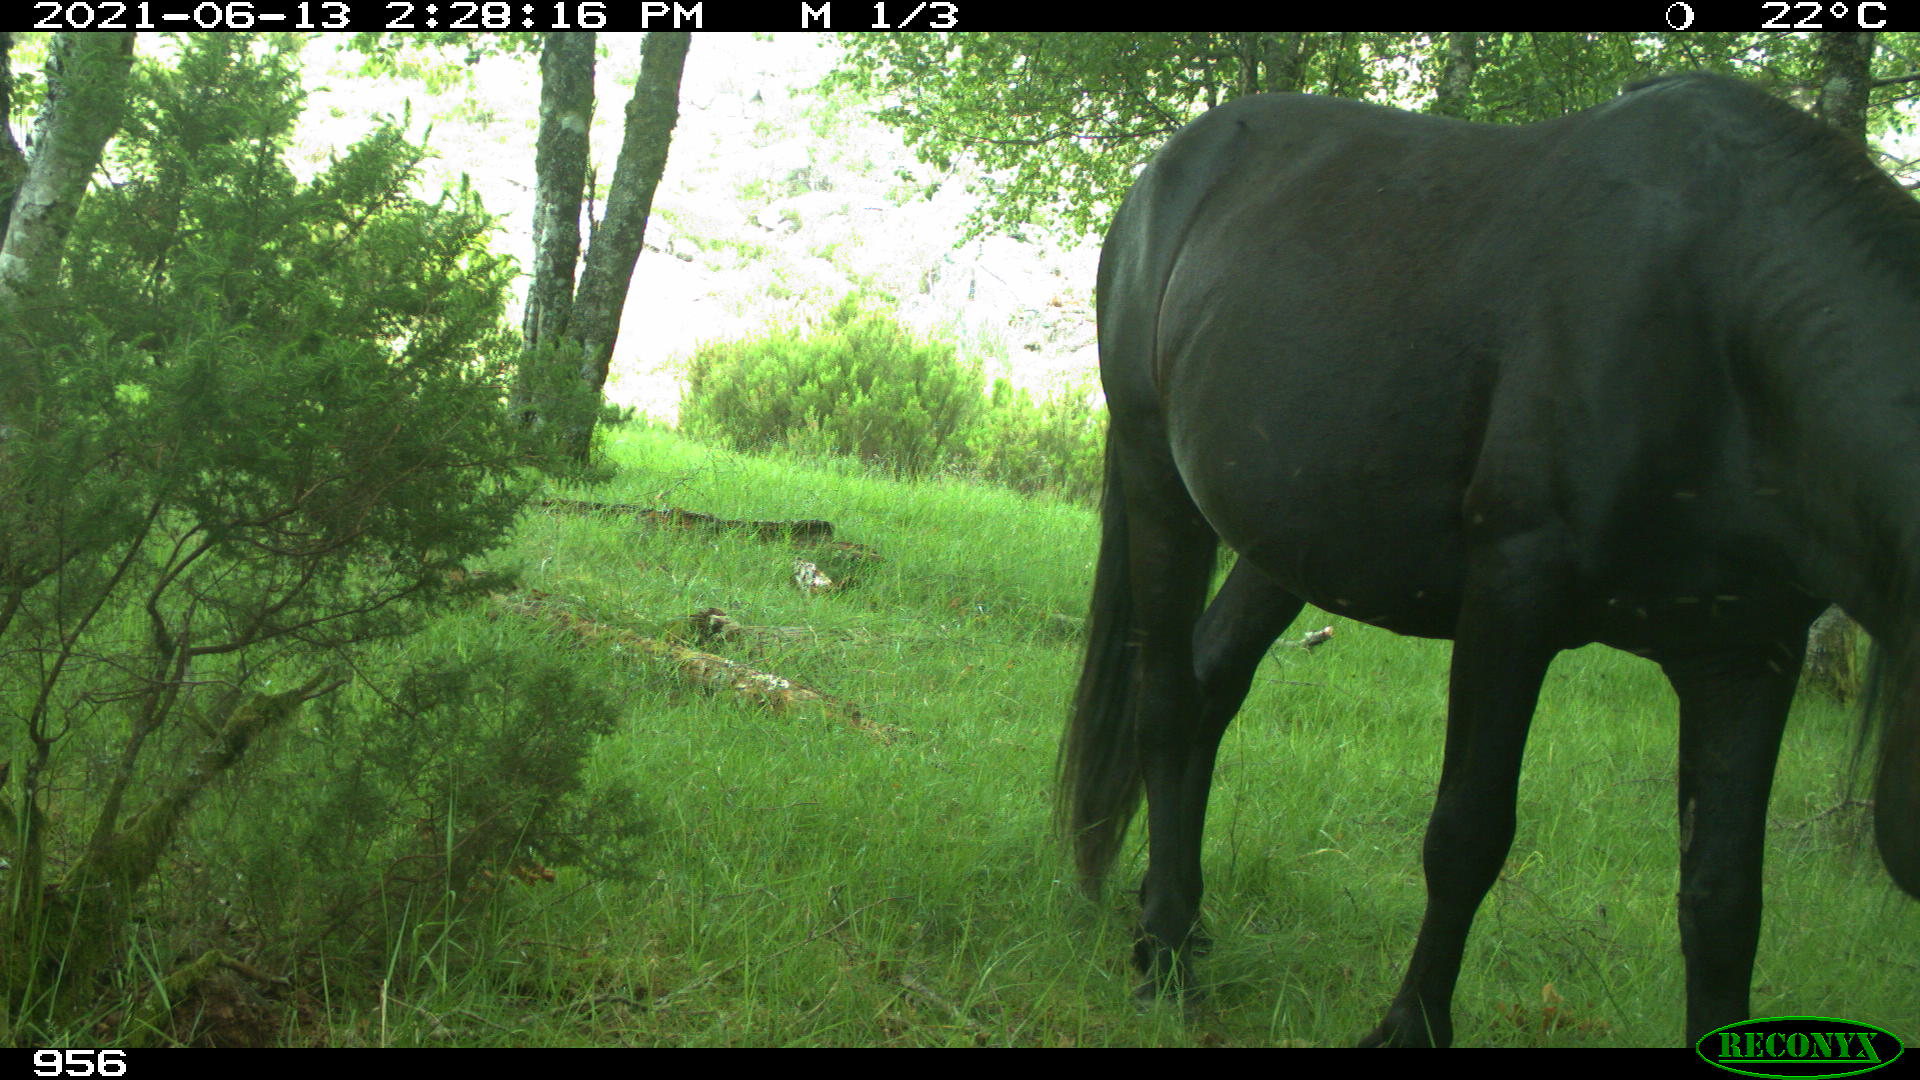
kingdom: Animalia
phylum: Chordata
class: Mammalia
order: Perissodactyla
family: Equidae
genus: Equus
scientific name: Equus caballus
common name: Horse
